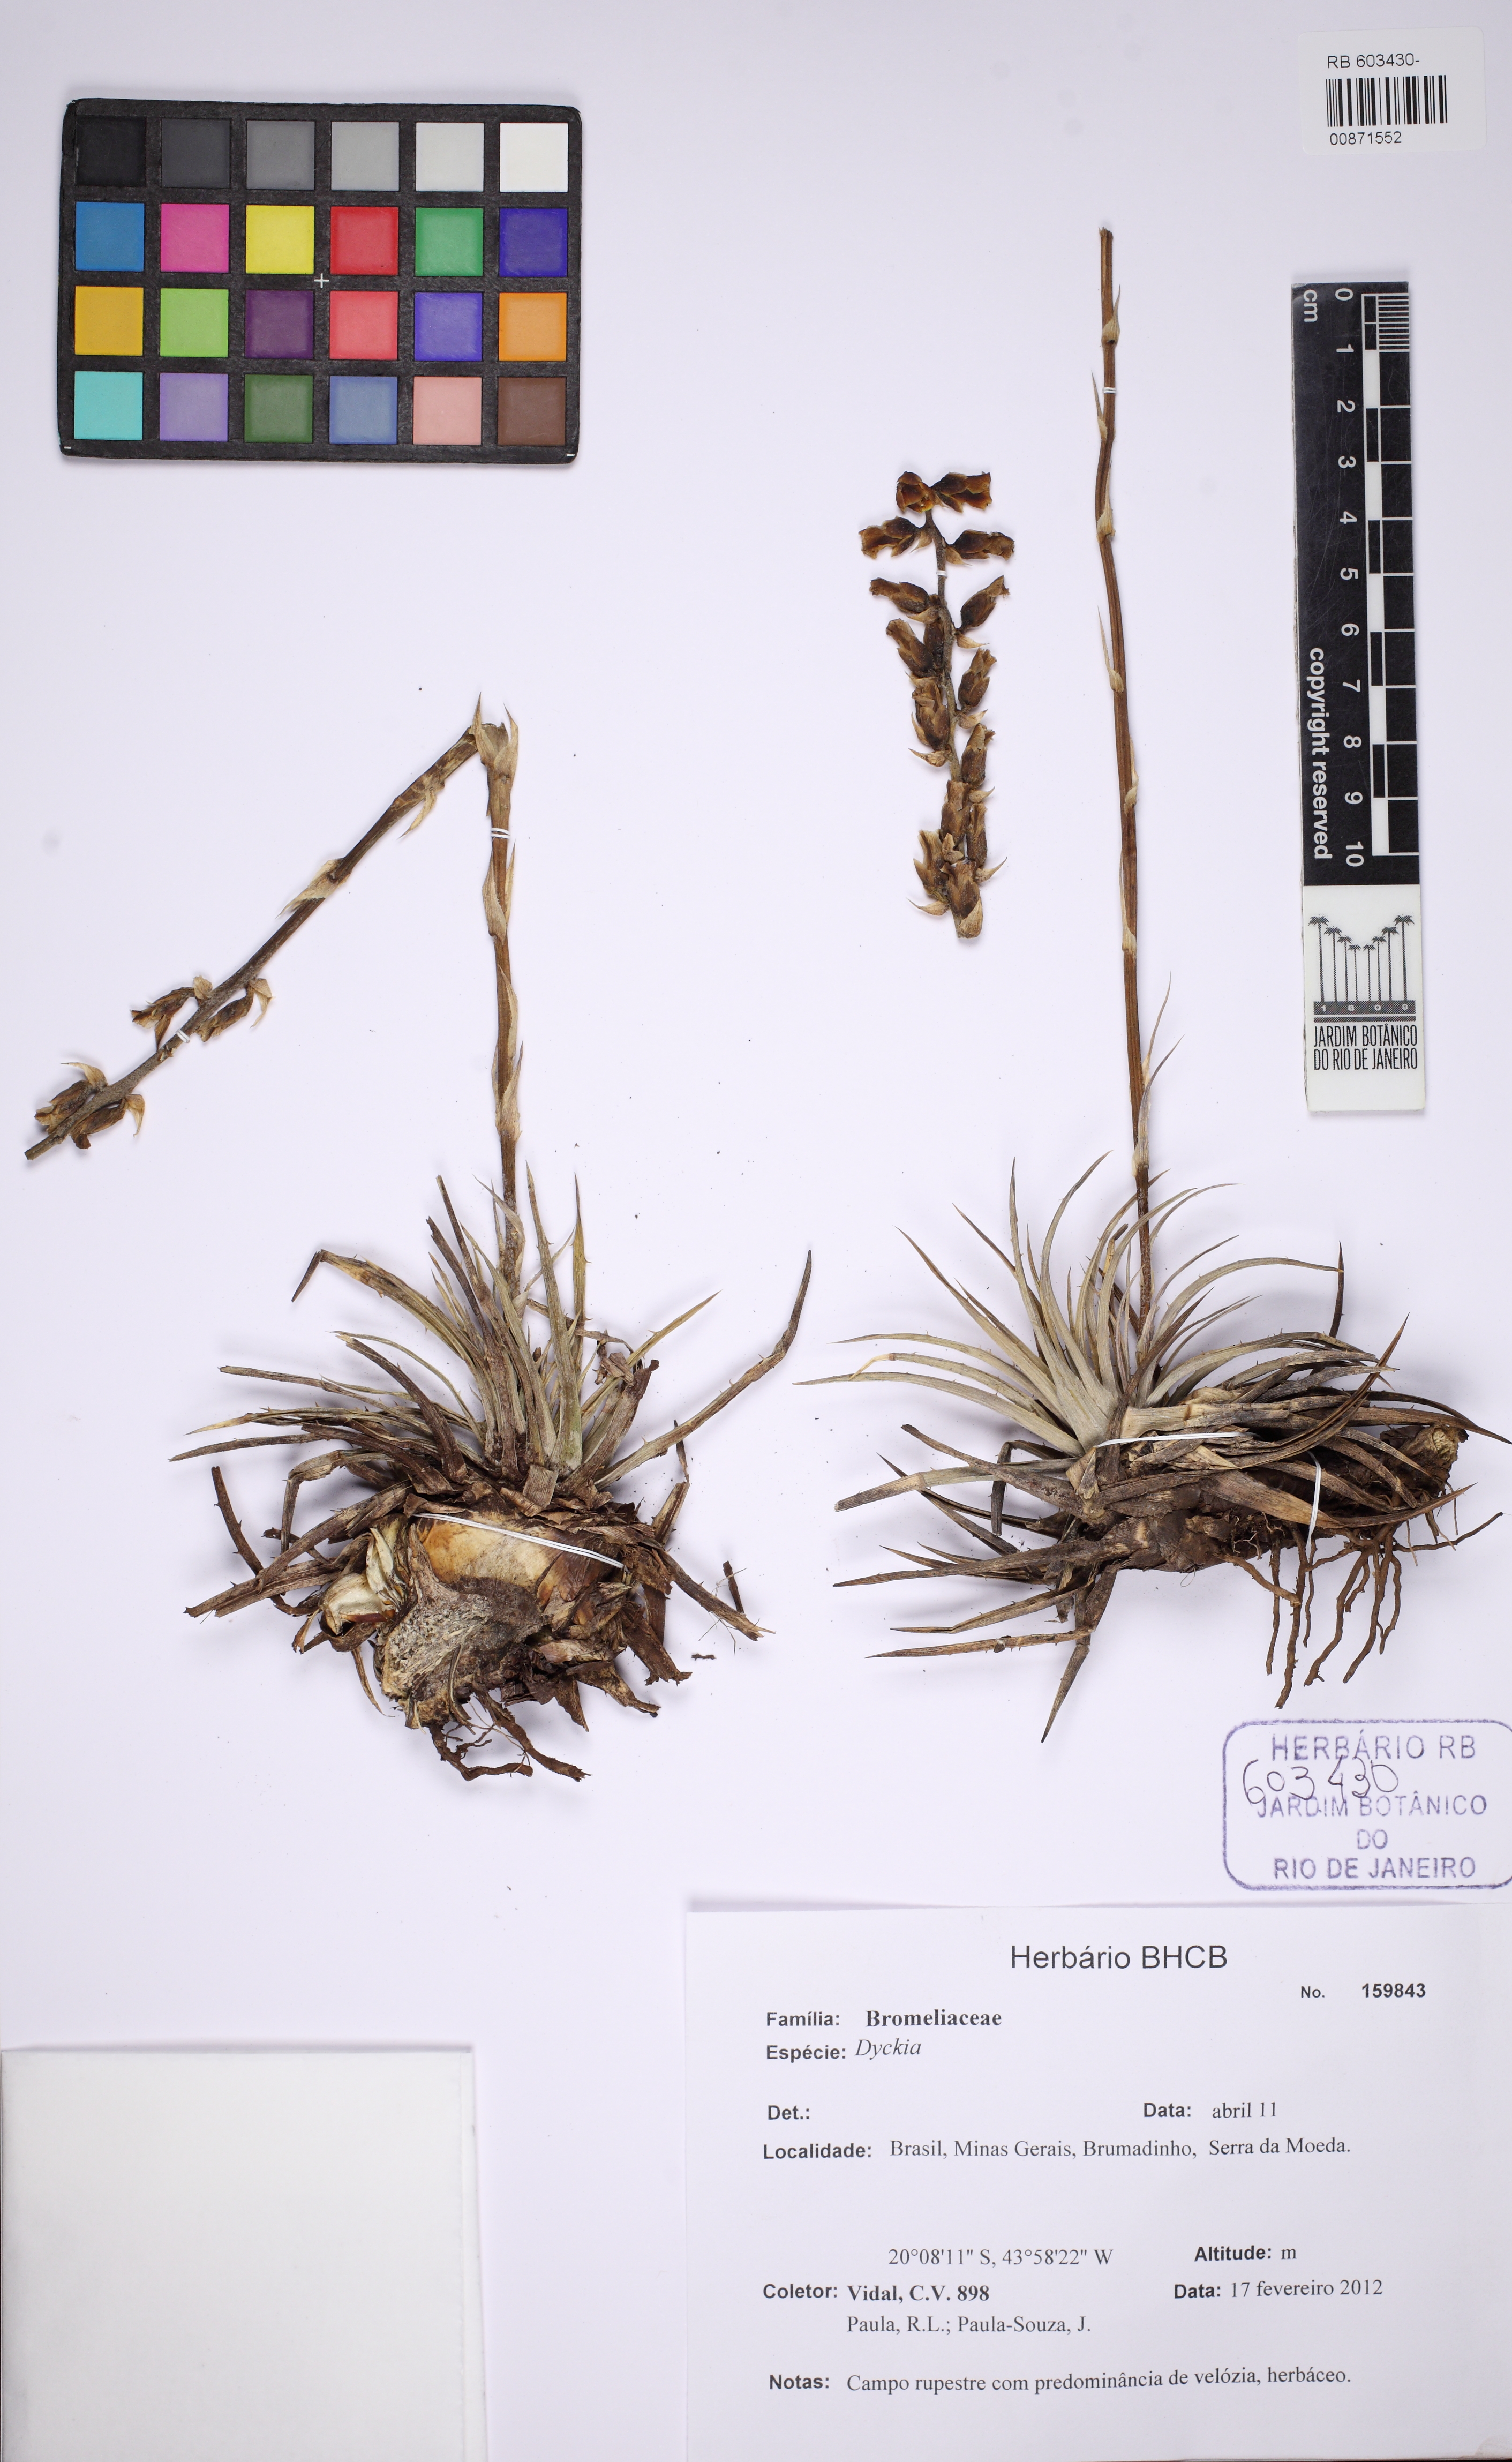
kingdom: Plantae
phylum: Tracheophyta
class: Liliopsida
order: Poales
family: Bromeliaceae
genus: Dyckia
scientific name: Dyckia
